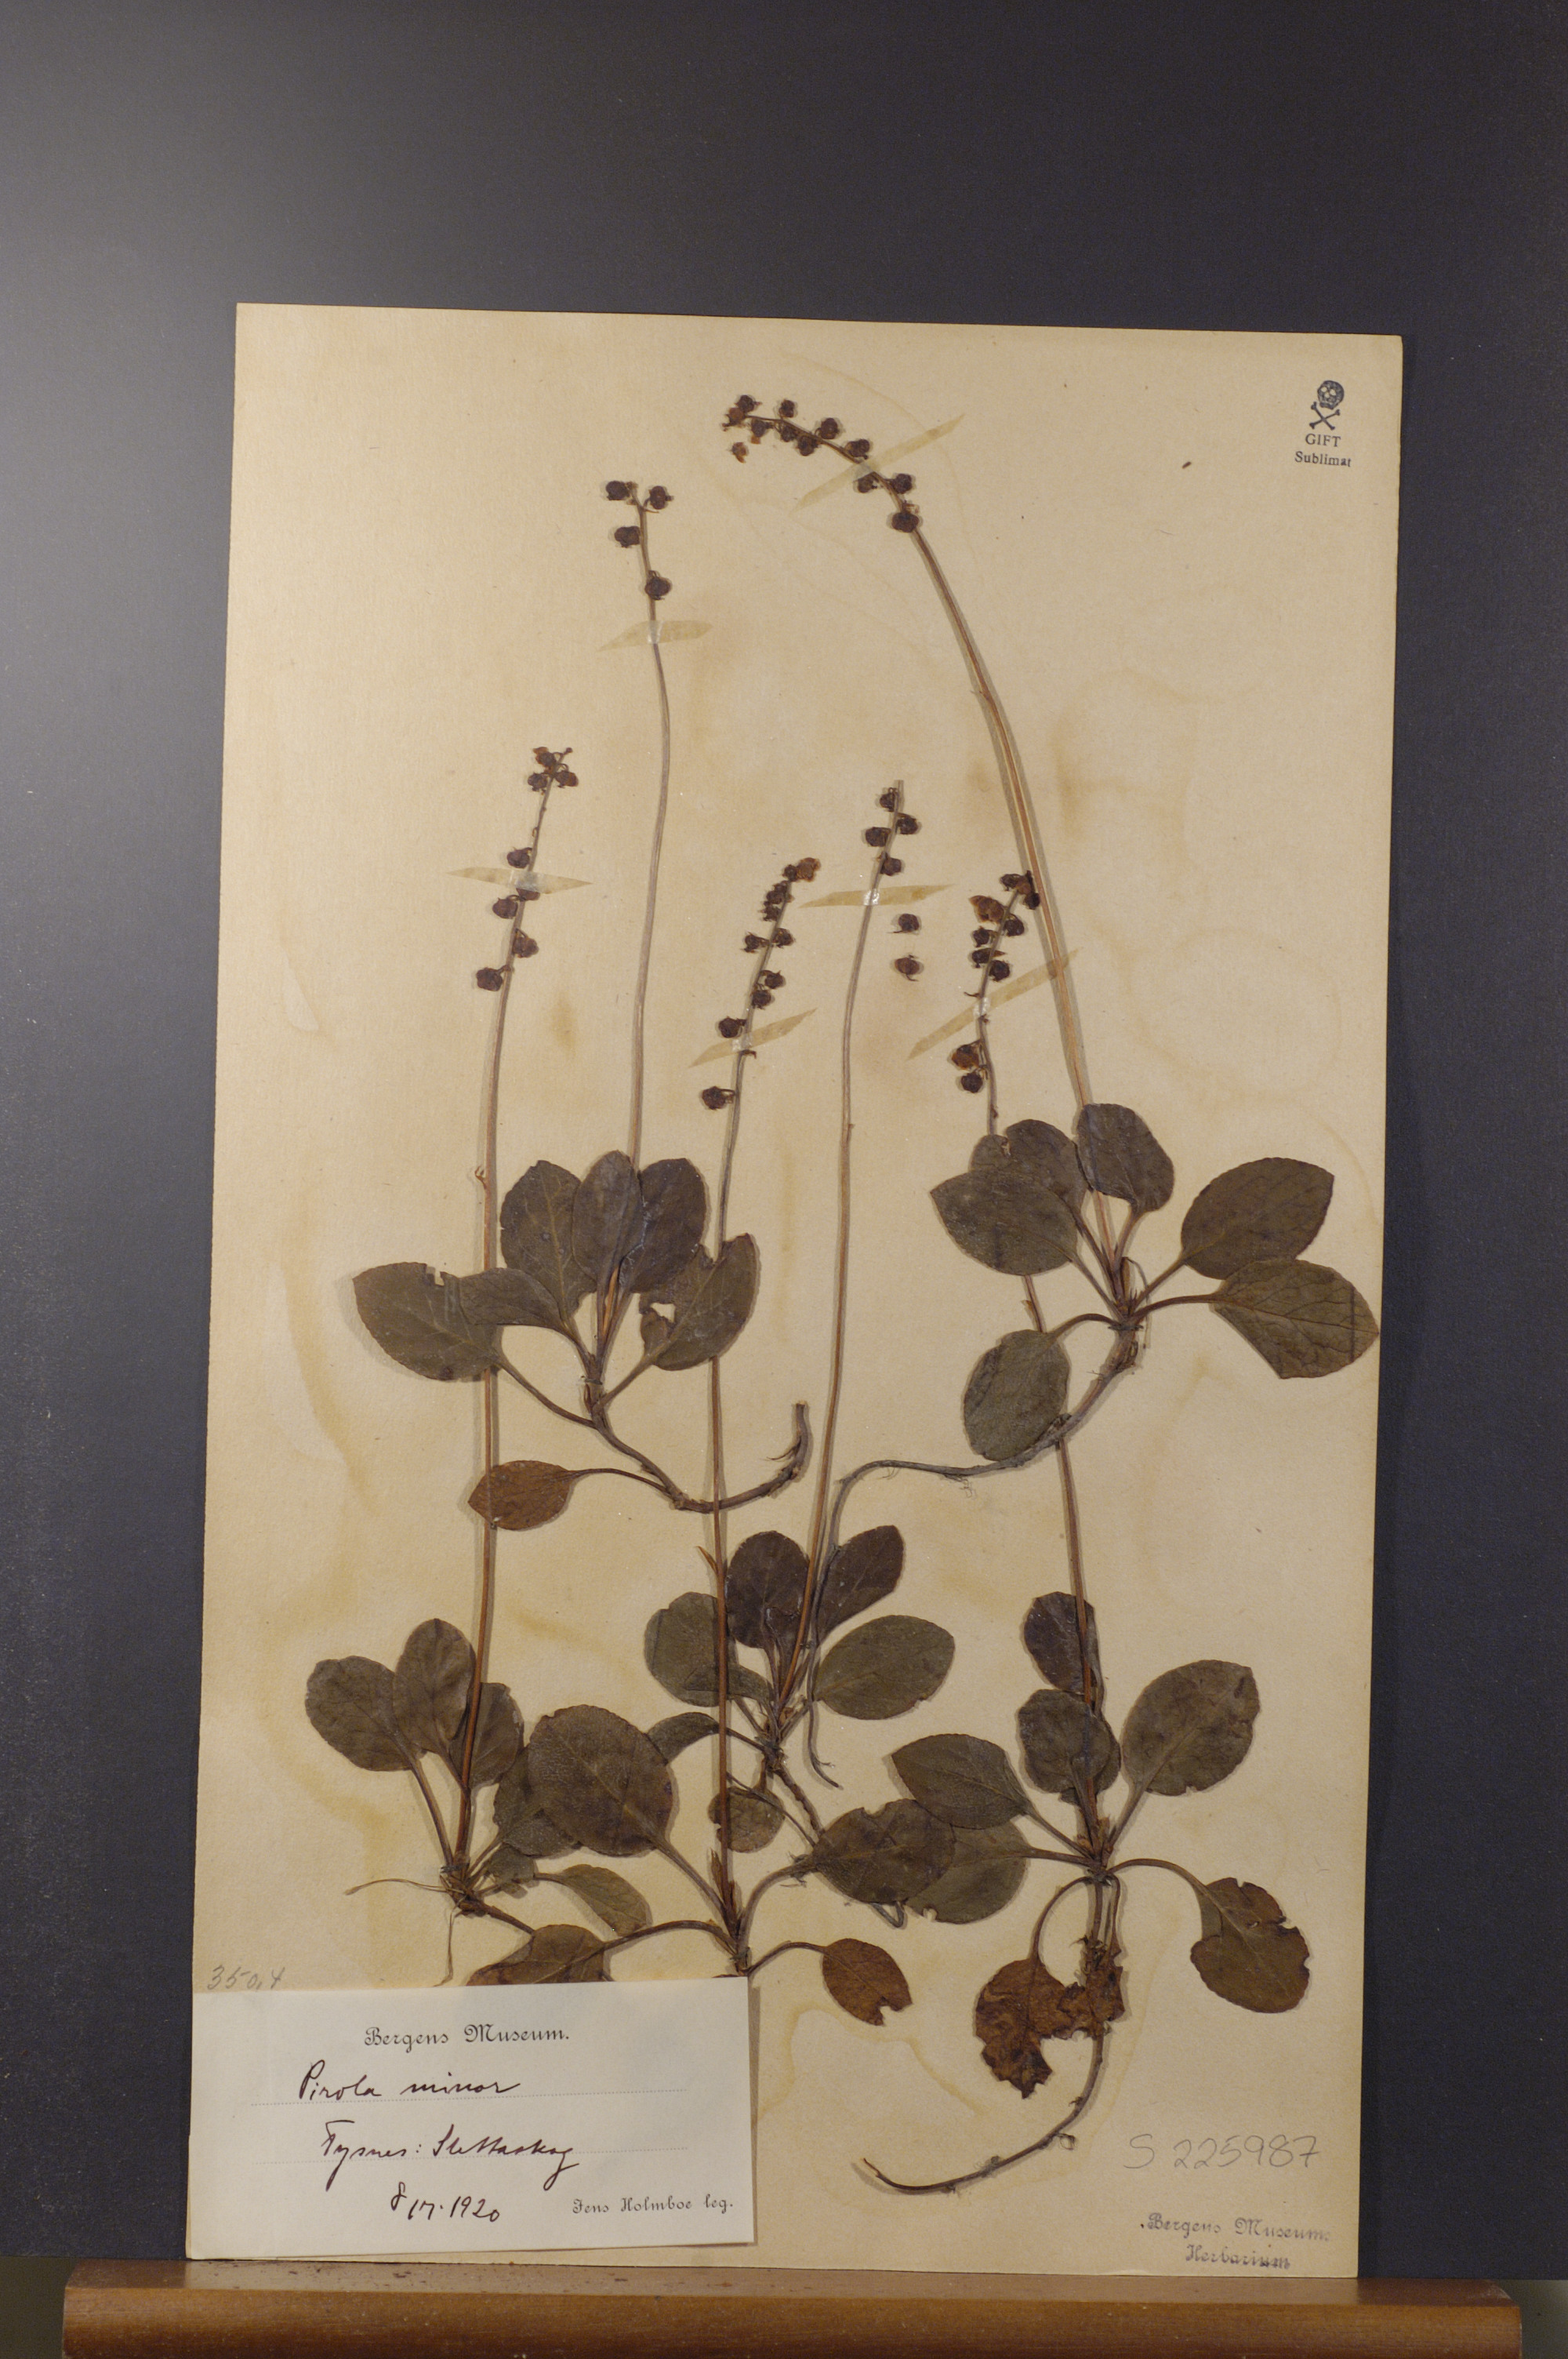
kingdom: Plantae
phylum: Tracheophyta
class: Magnoliopsida
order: Ericales
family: Ericaceae
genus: Pyrola
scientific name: Pyrola minor
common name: Common wintergreen
